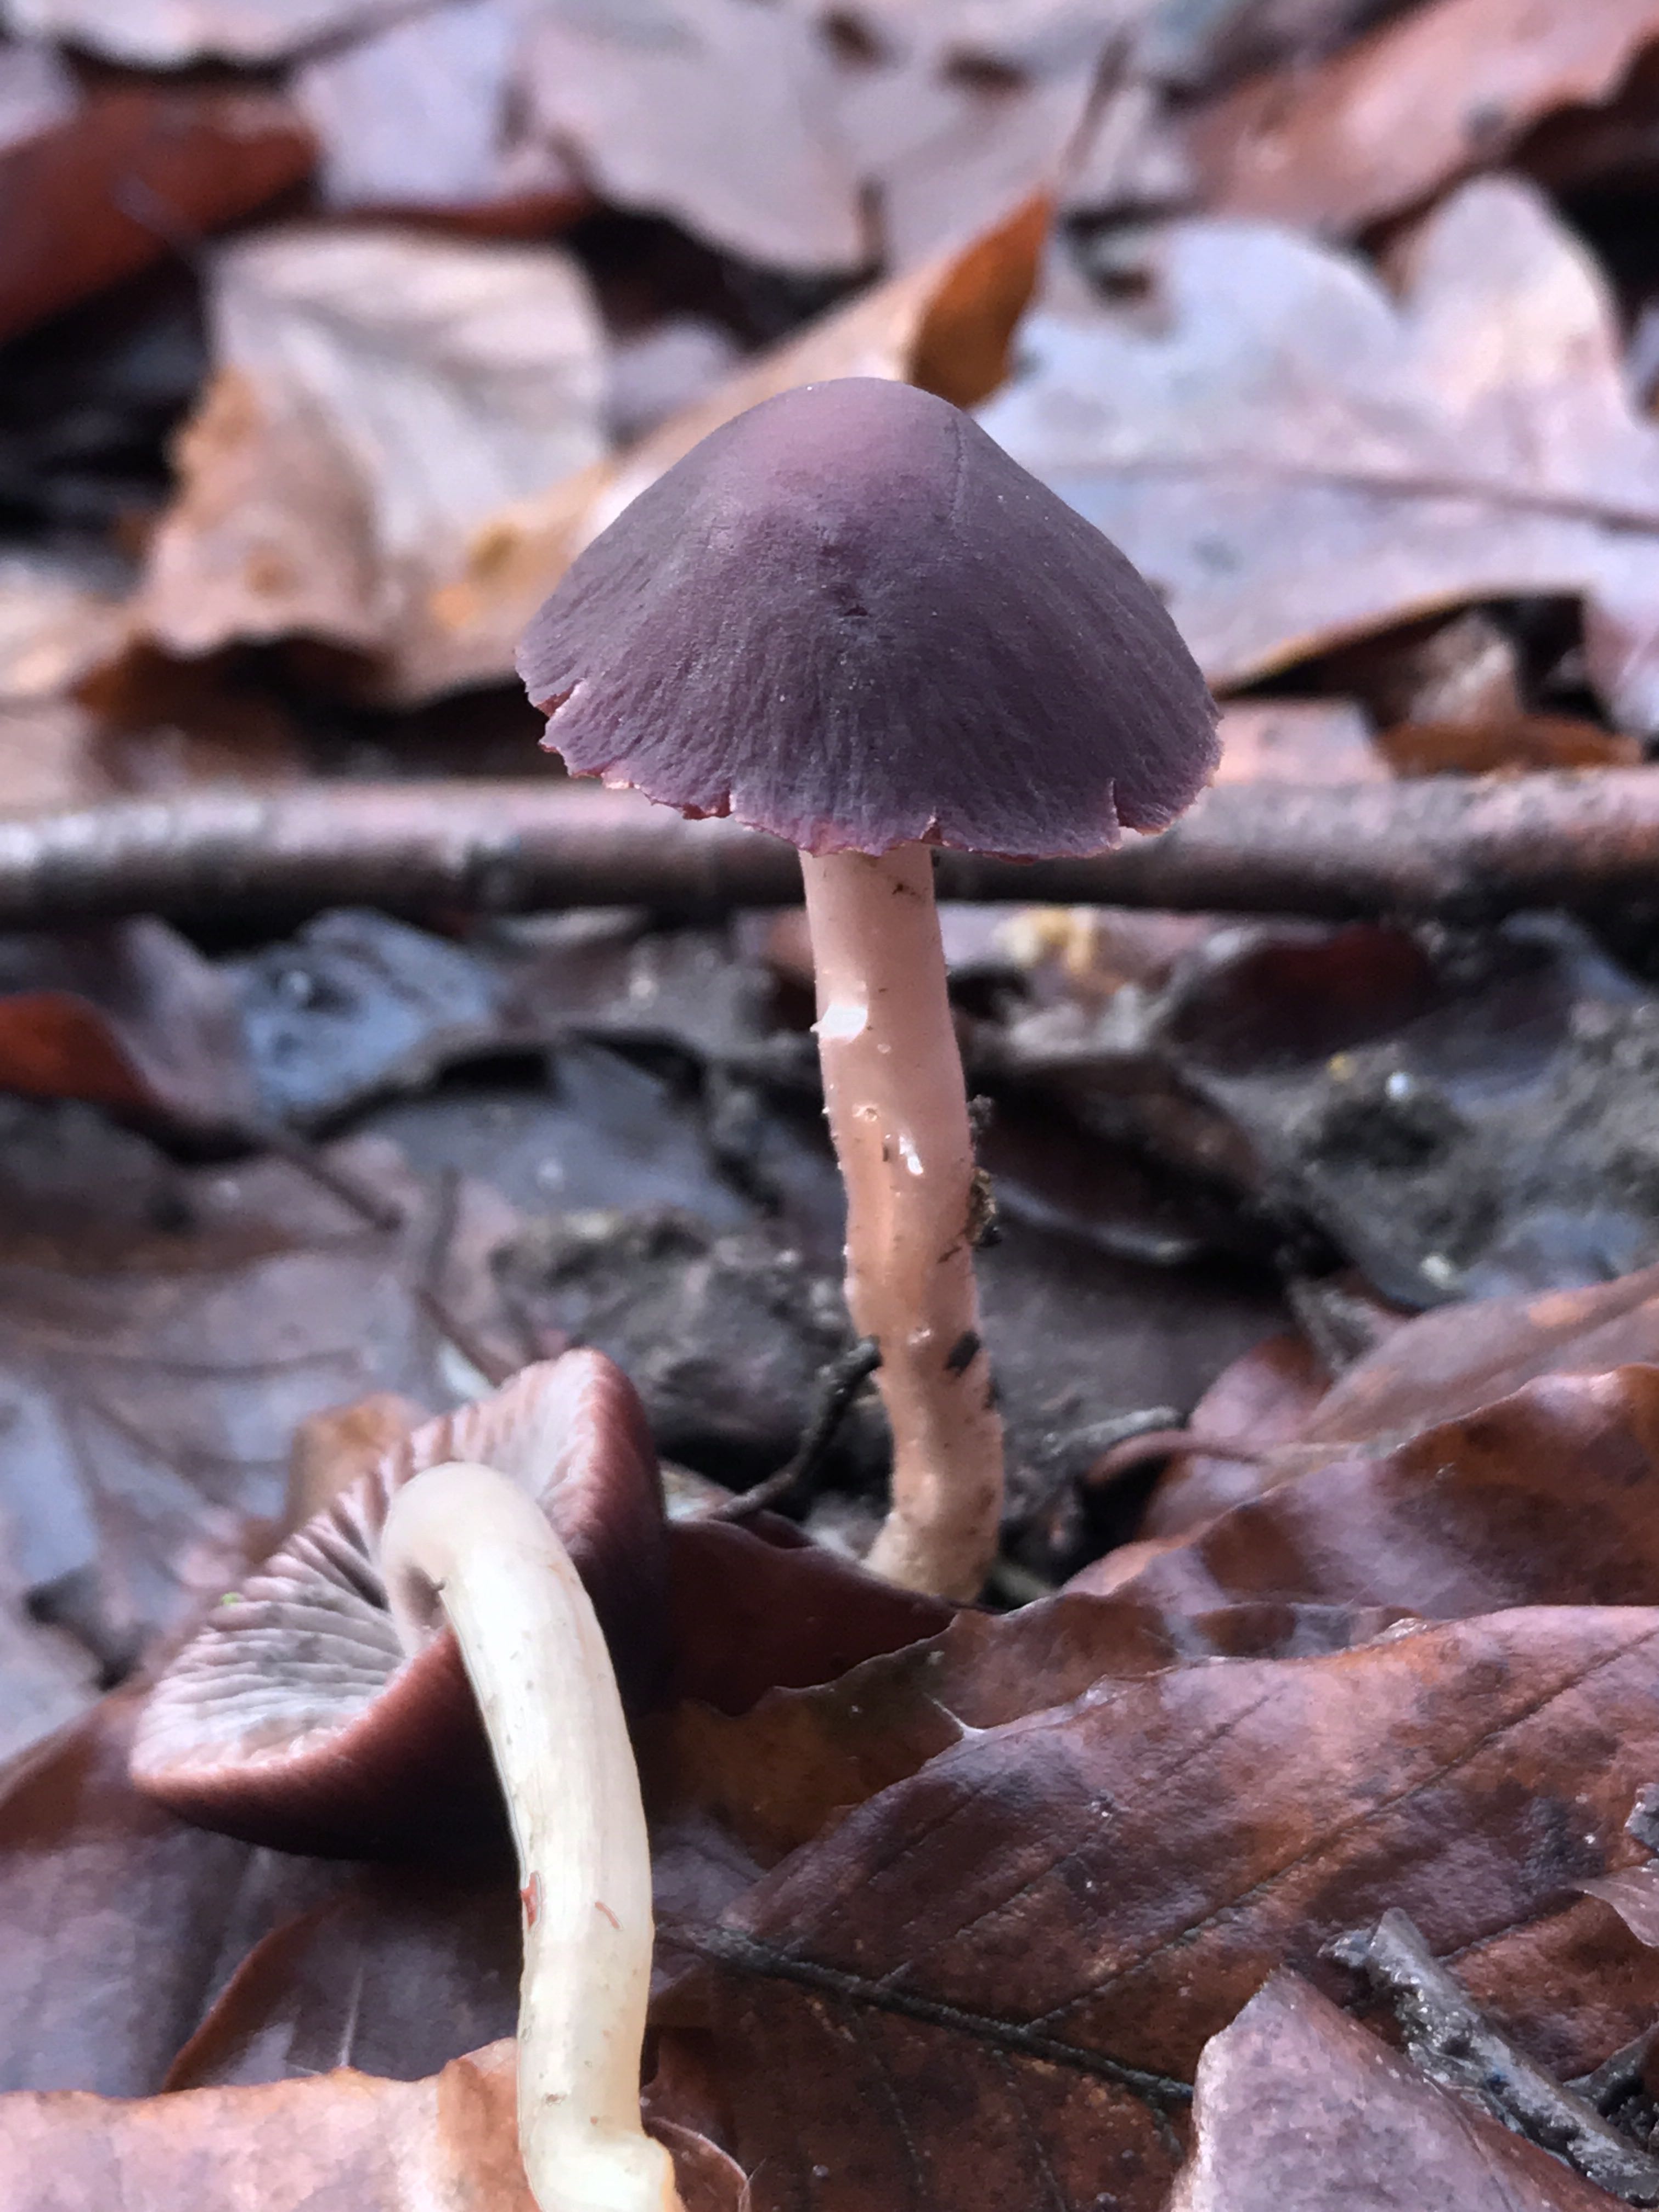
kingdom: Fungi
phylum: Basidiomycota
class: Agaricomycetes
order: Agaricales
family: Psathyrellaceae
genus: Psathyrella
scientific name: Psathyrella bipellis
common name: vinrød mørkhat
